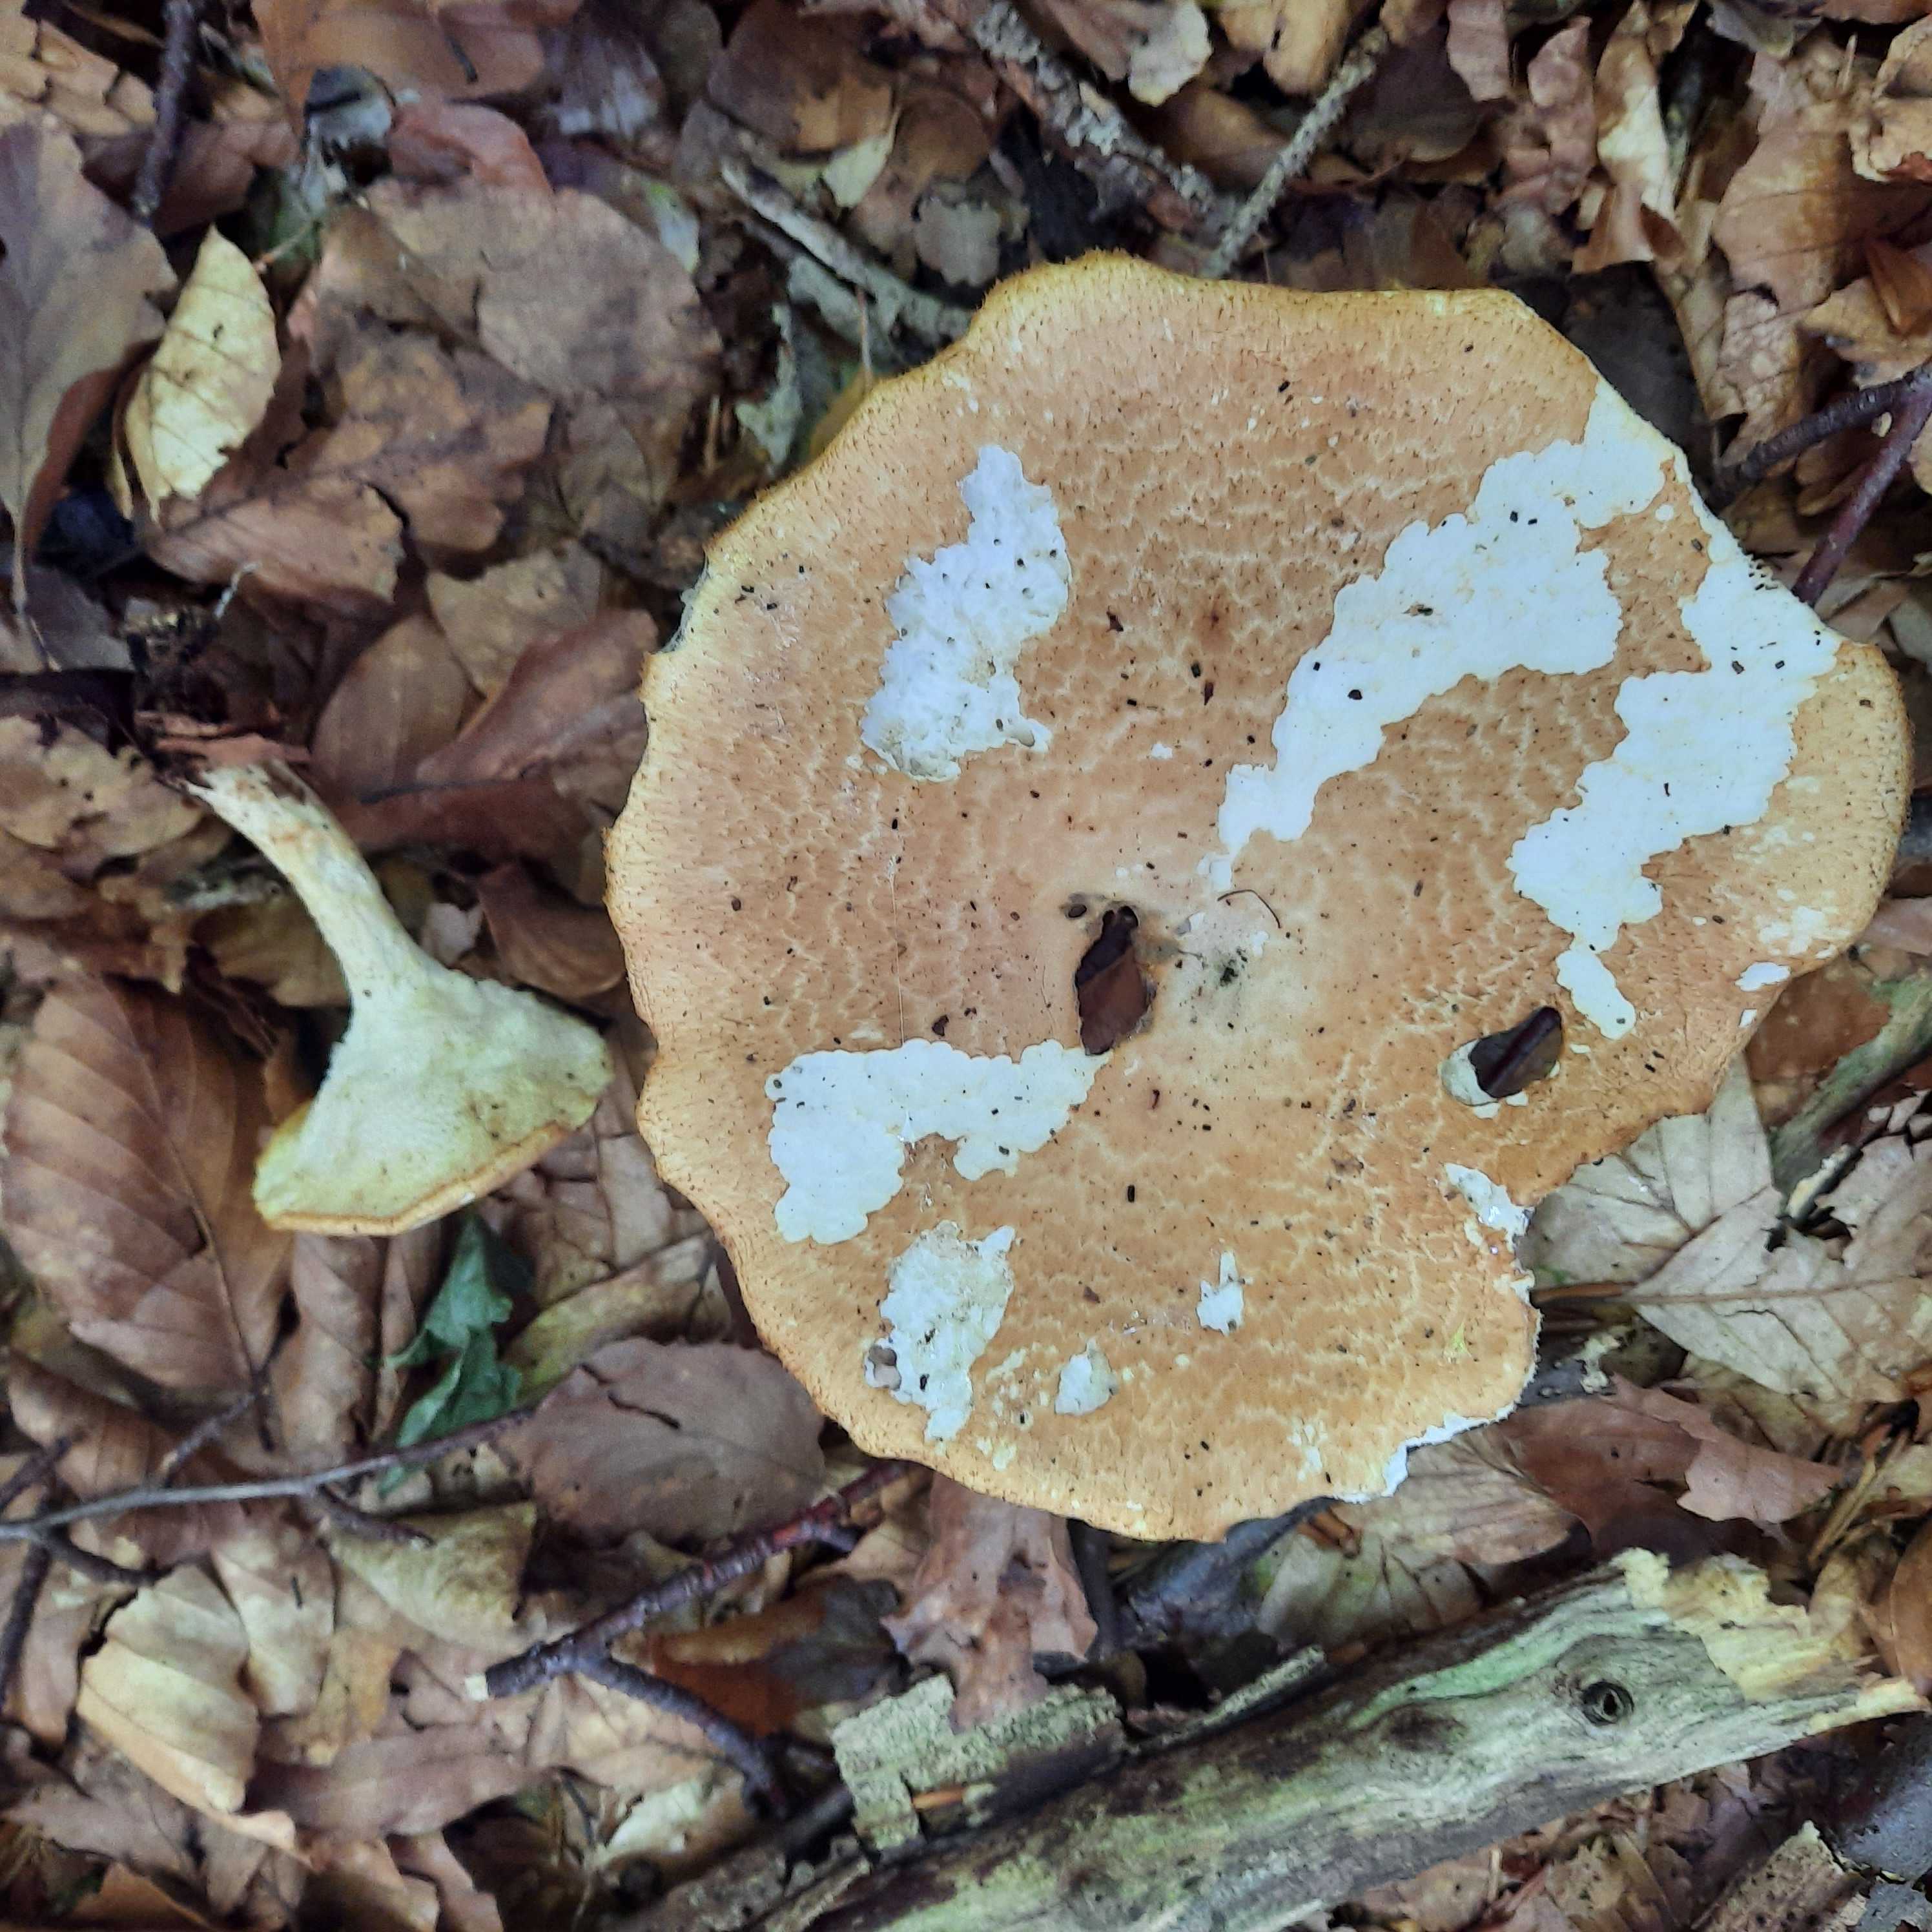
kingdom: Fungi
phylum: Basidiomycota
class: Agaricomycetes
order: Polyporales
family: Polyporaceae
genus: Polyporus
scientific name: Polyporus tuberaster
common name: knoldet stilkporesvamp
